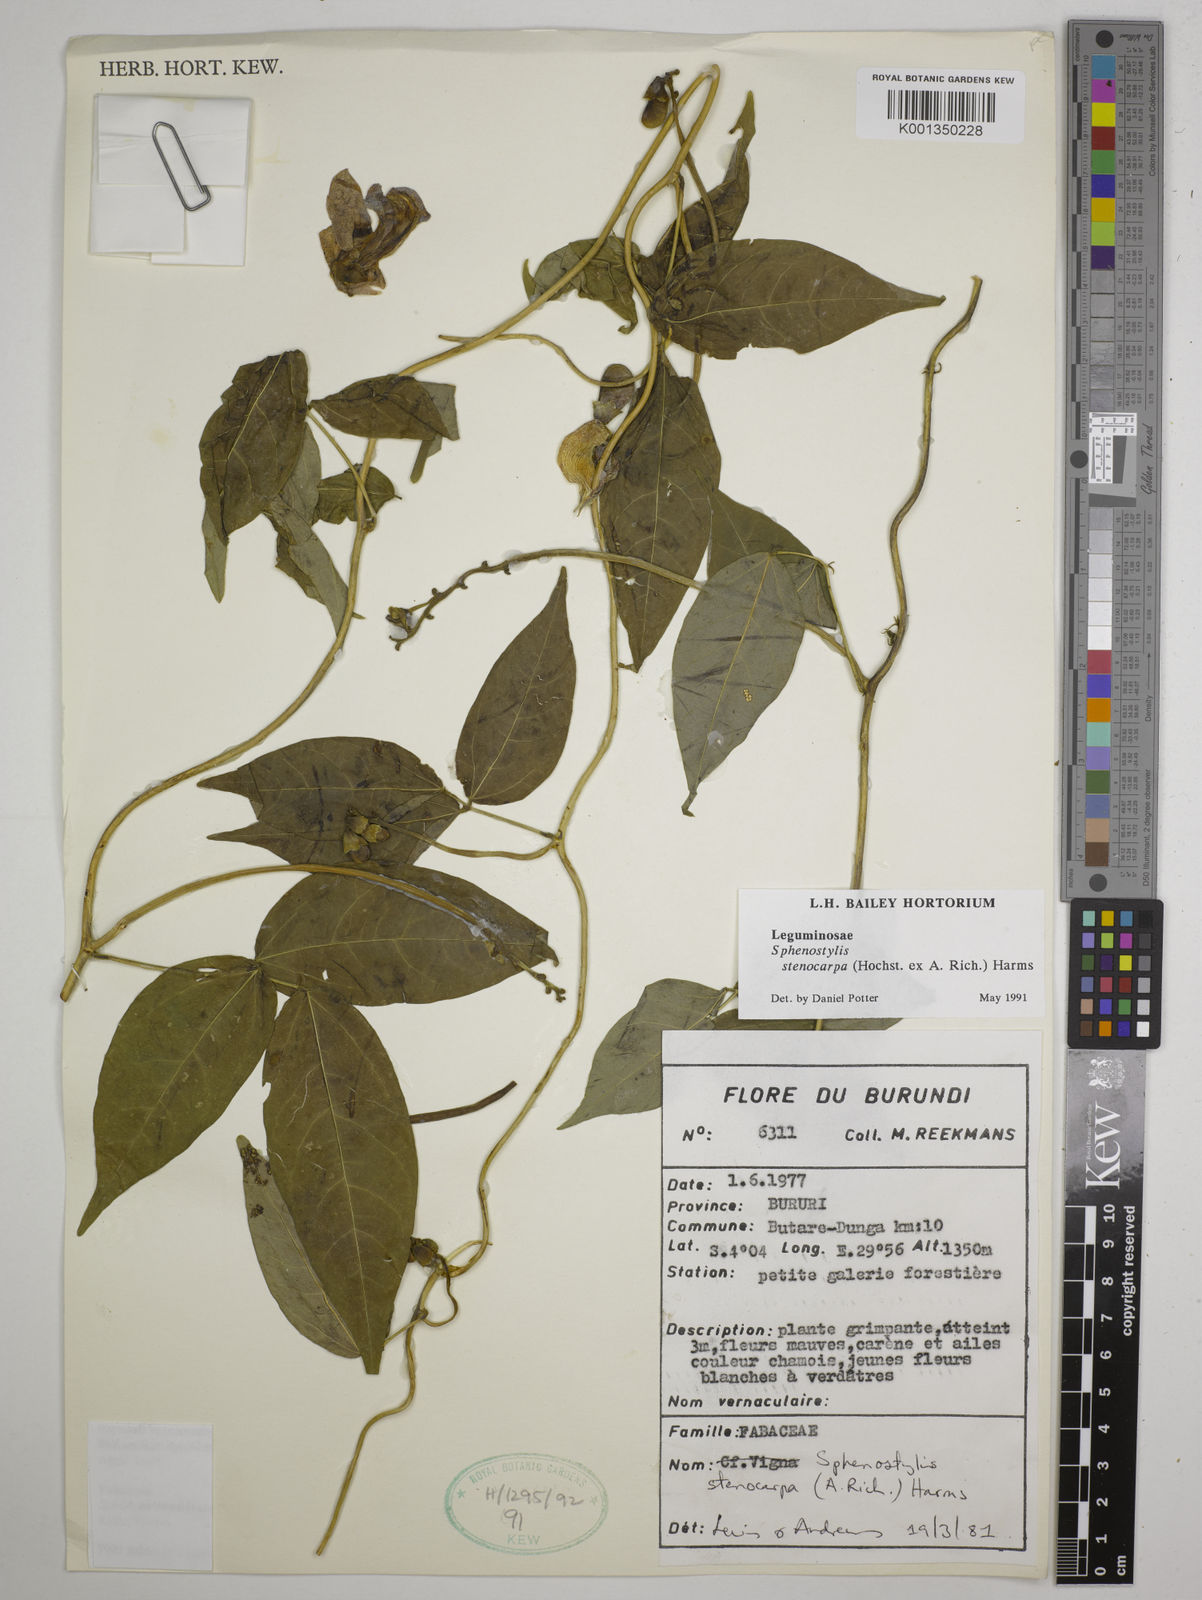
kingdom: Plantae
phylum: Tracheophyta
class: Magnoliopsida
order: Fabales
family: Fabaceae
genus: Sphenostylis
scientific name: Sphenostylis stenocarpa
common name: Yam-pea
